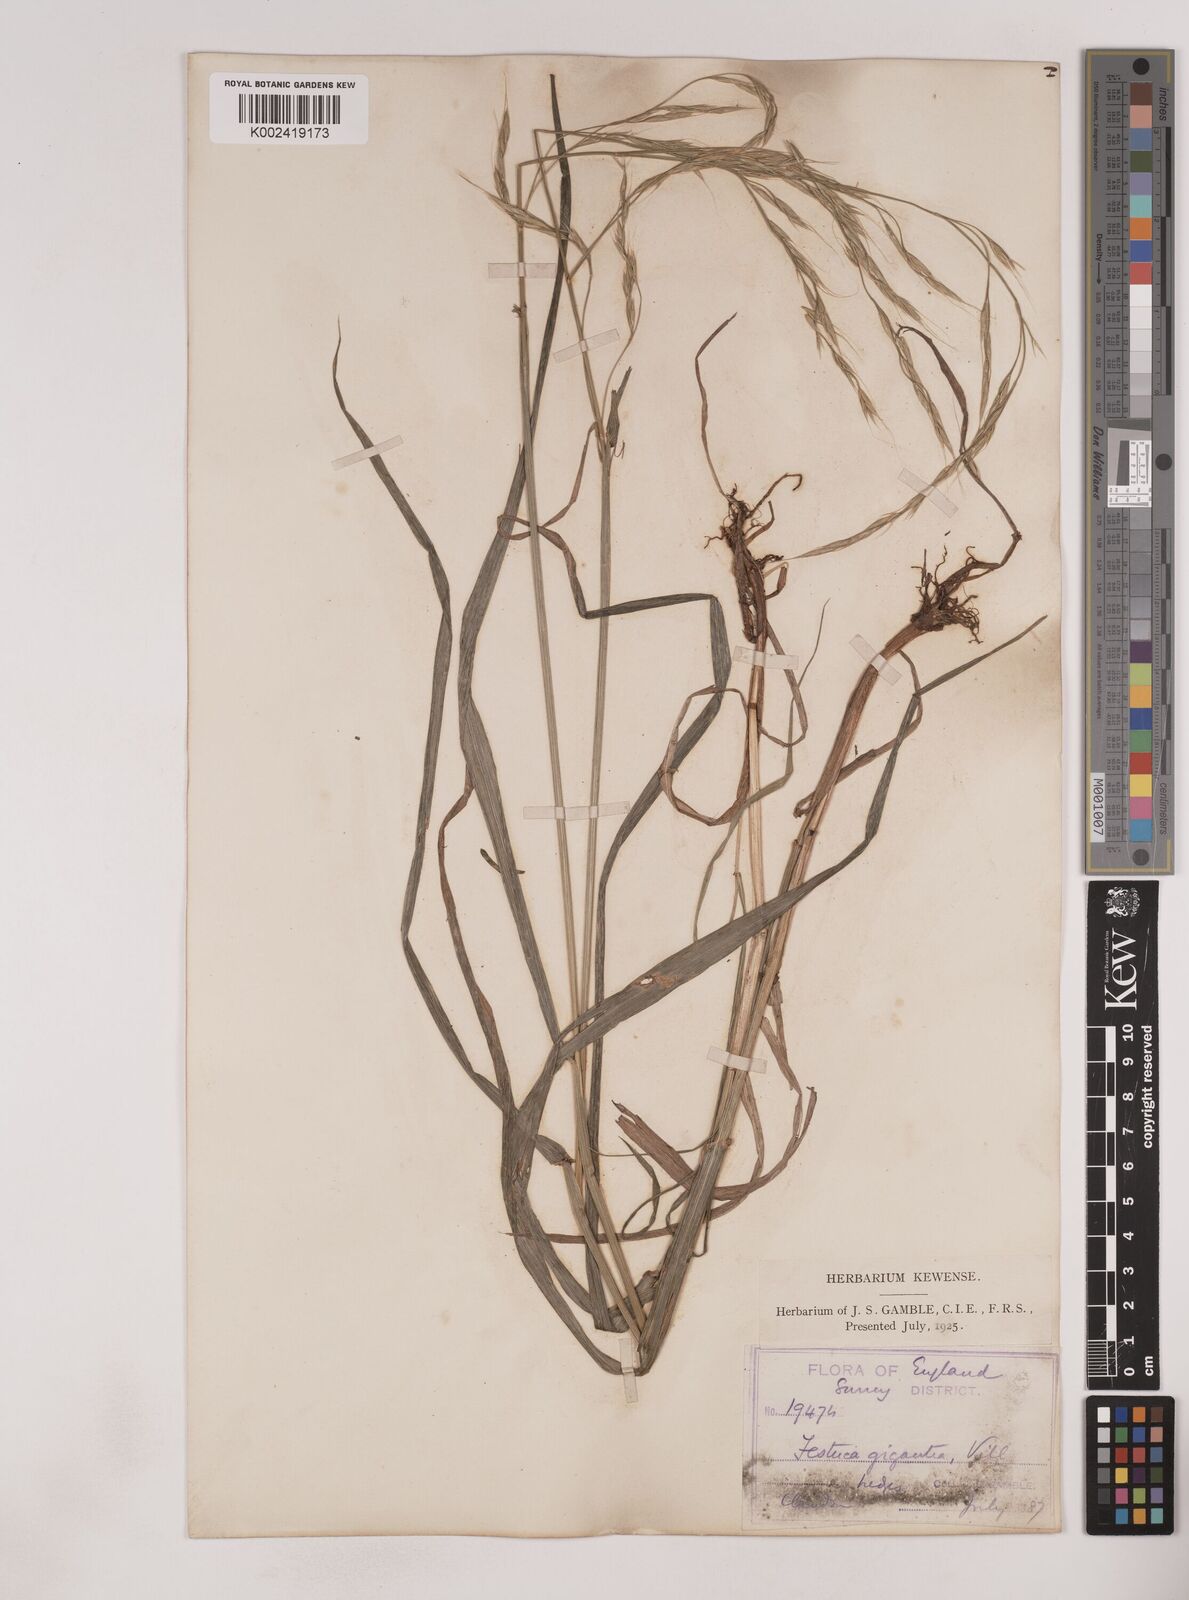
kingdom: Plantae
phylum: Tracheophyta
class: Liliopsida
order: Poales
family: Poaceae
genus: Lolium
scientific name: Lolium giganteum
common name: Giant fescue
